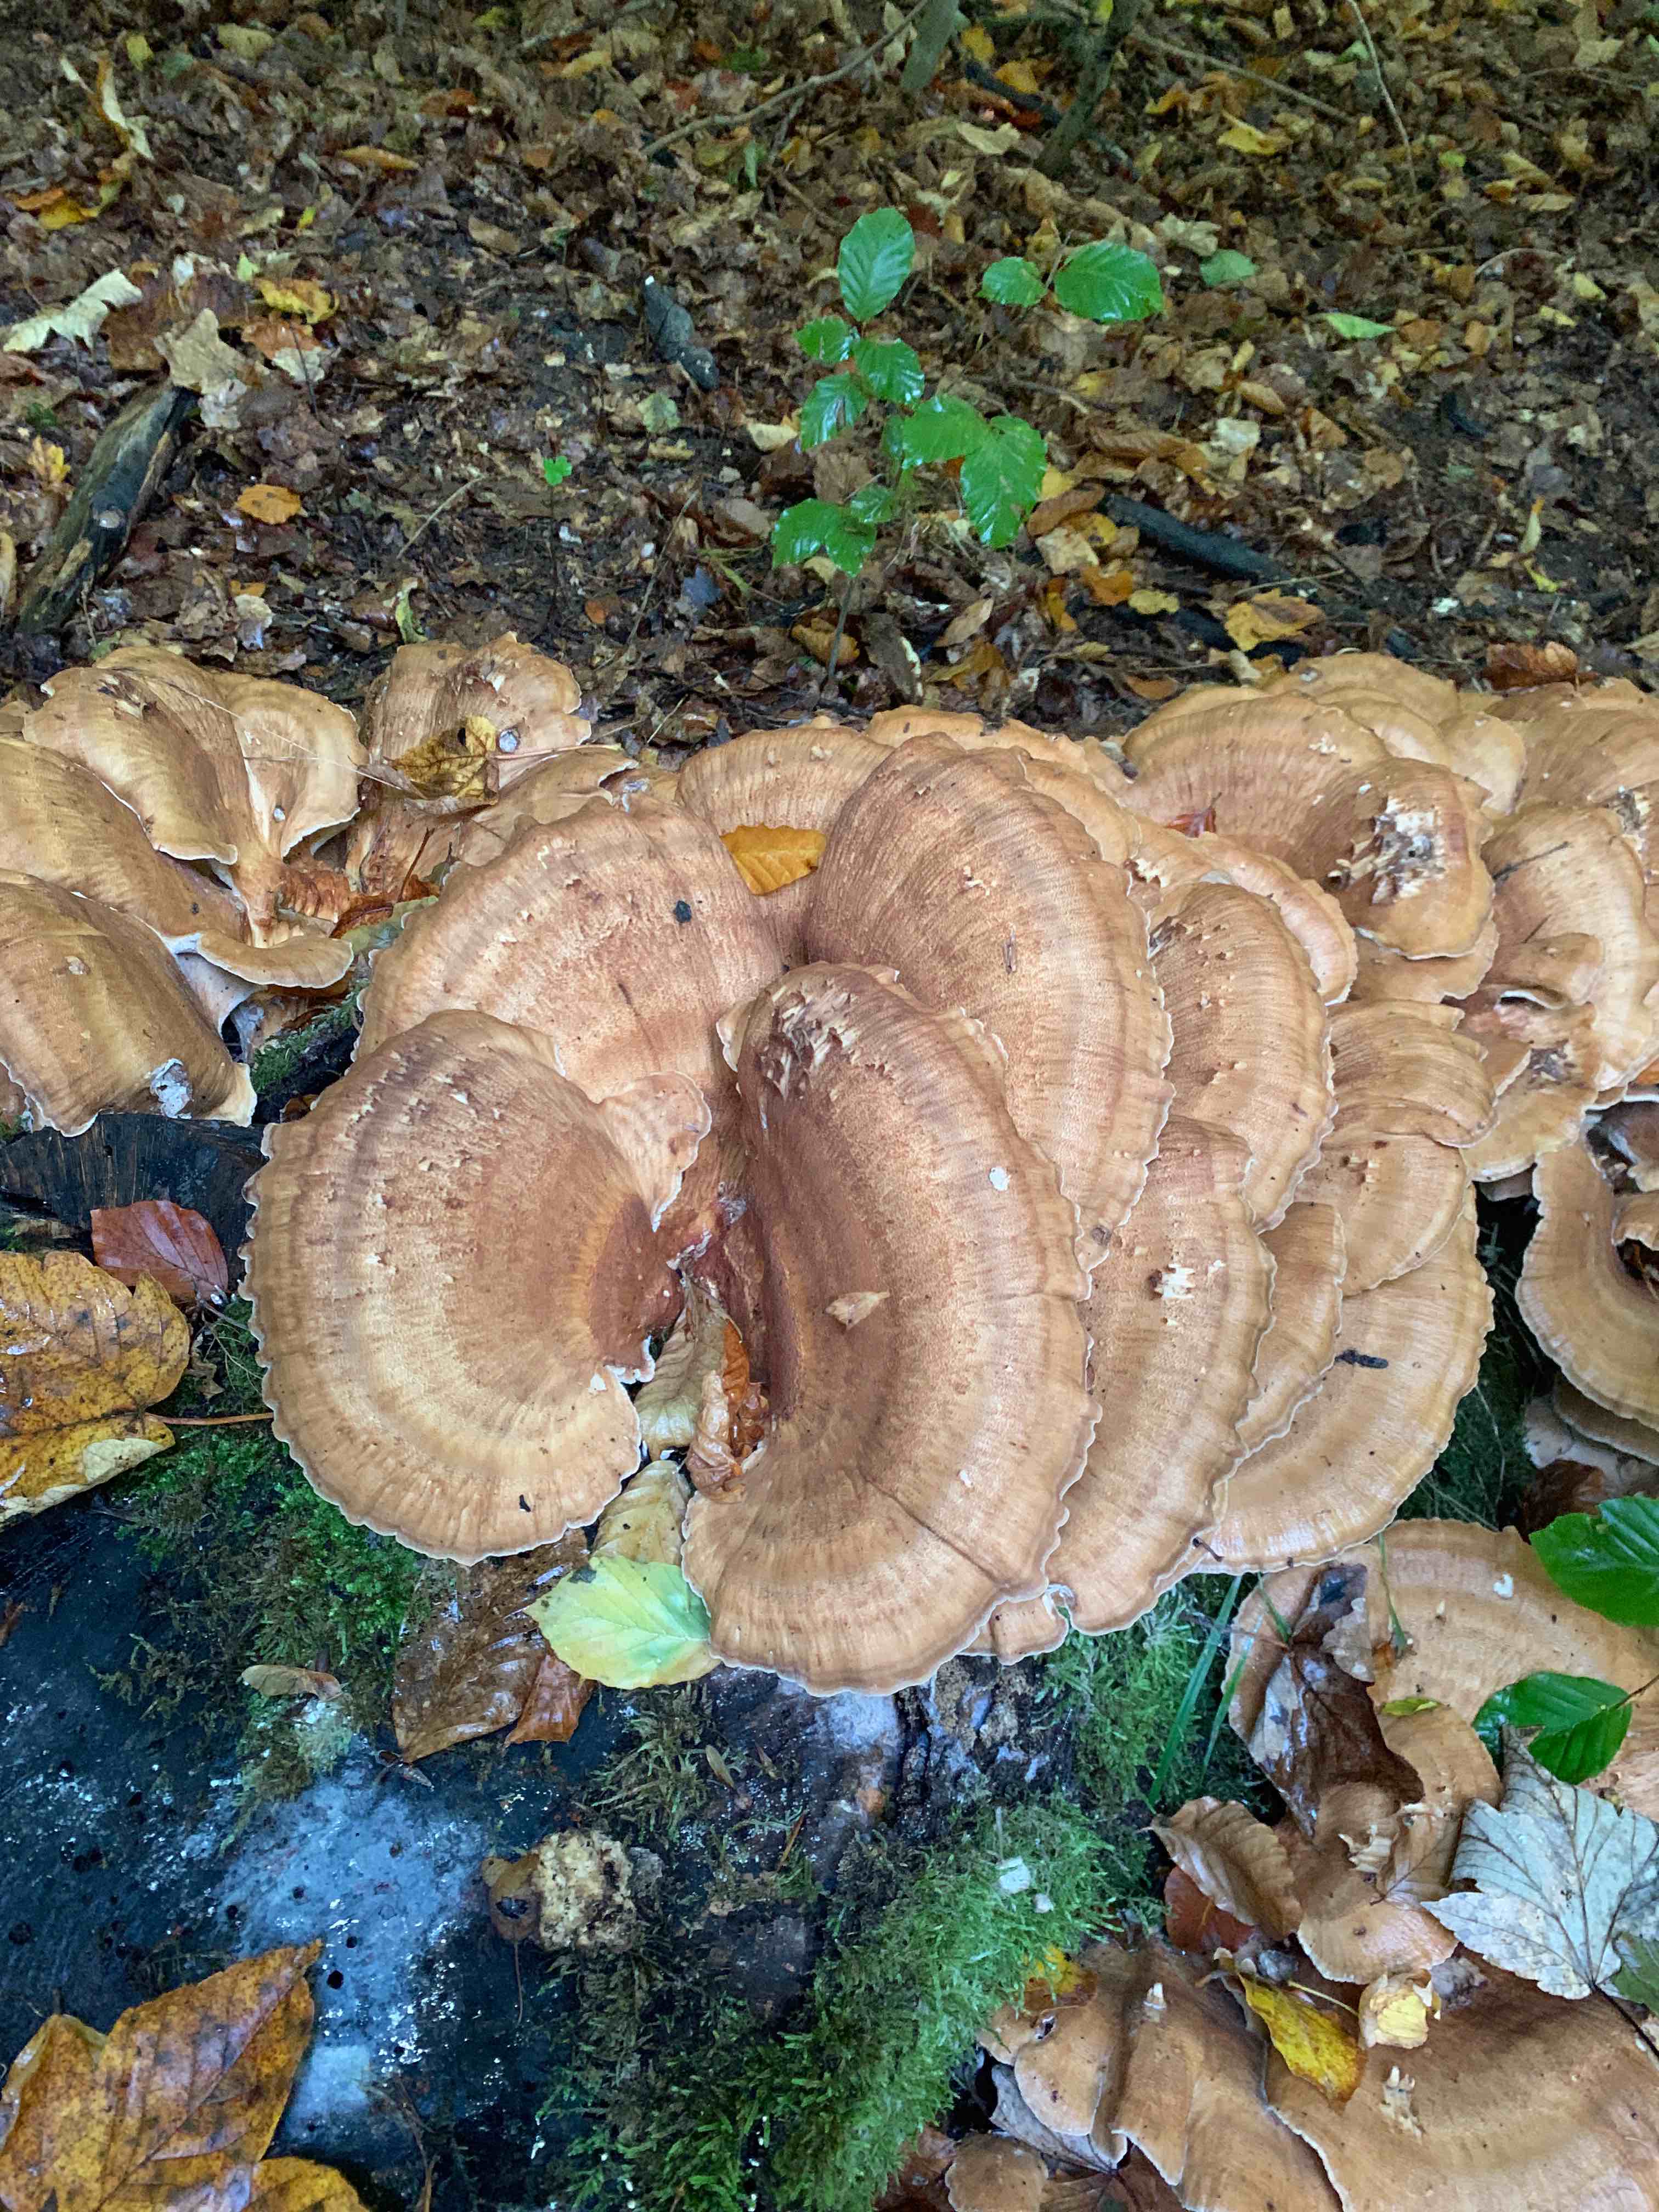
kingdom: Fungi
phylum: Basidiomycota
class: Agaricomycetes
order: Polyporales
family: Meripilaceae
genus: Meripilus
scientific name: Meripilus giganteus
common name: kæmpeporesvamp
